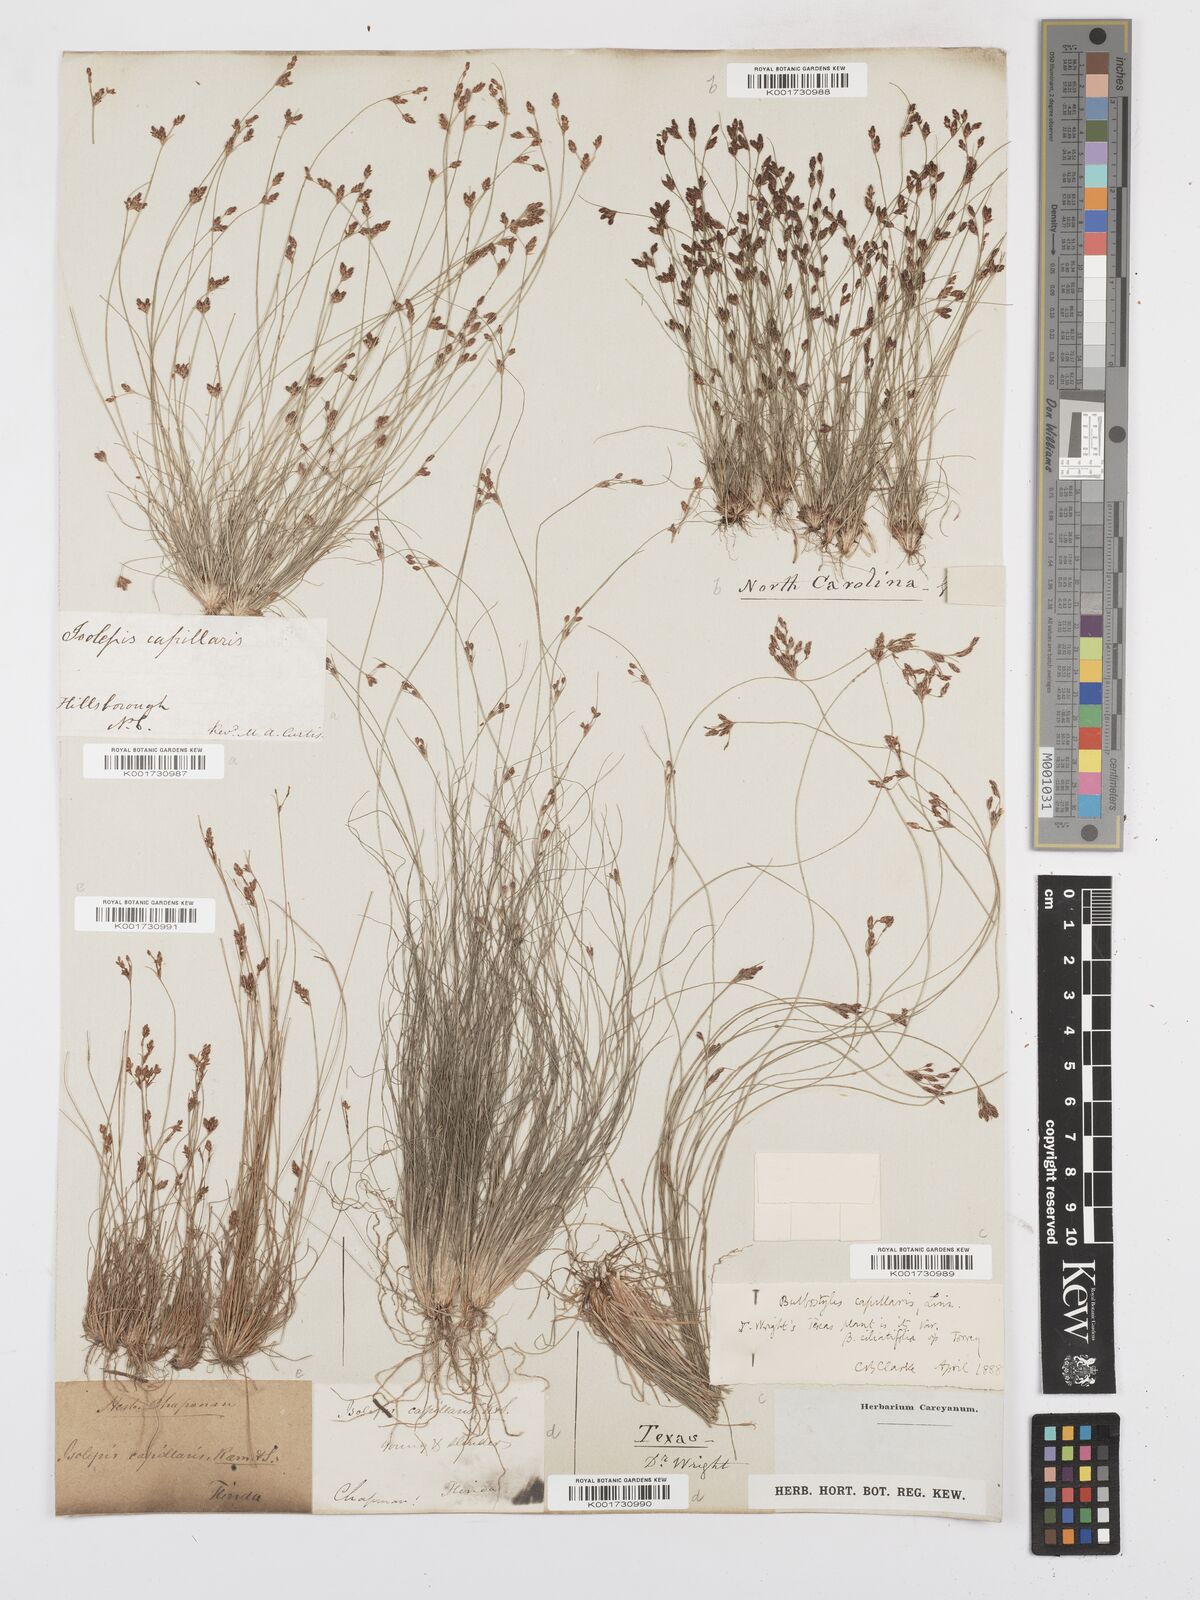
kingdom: Plantae
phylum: Tracheophyta
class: Liliopsida
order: Poales
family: Cyperaceae
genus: Bulbostylis
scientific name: Bulbostylis capillaris
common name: Densetuft hairsedge
